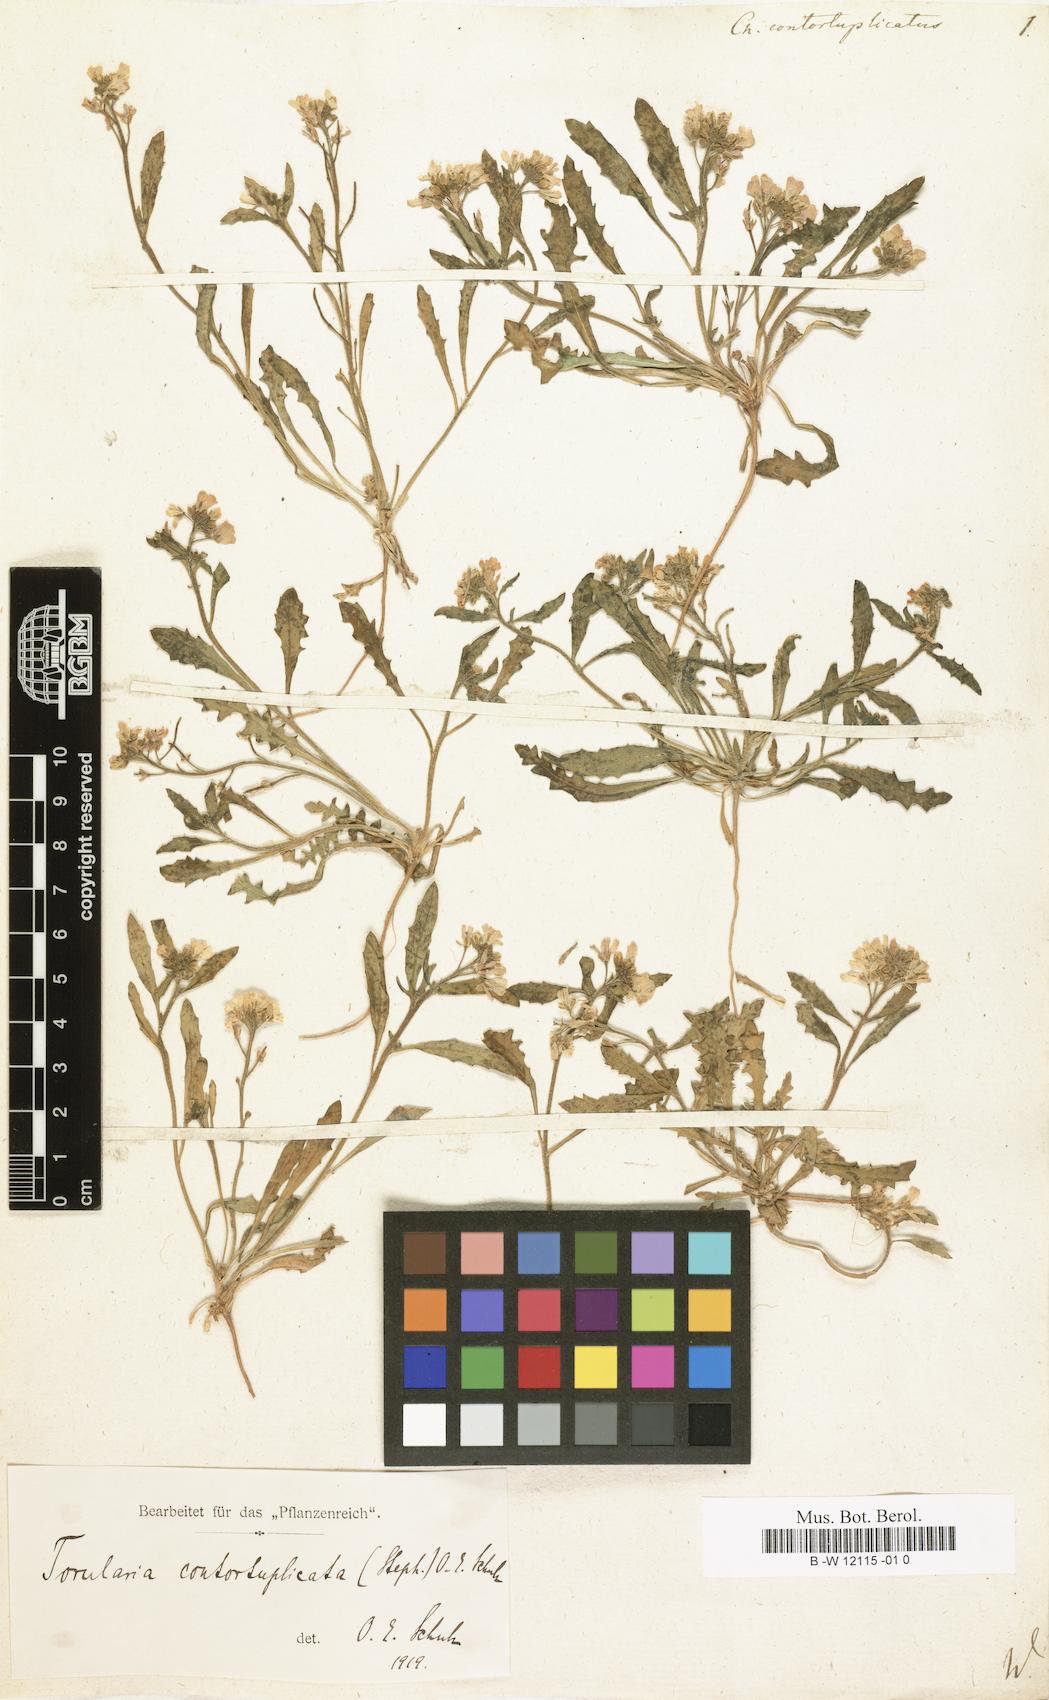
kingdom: Plantae
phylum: Tracheophyta
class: Magnoliopsida
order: Brassicales
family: Brassicaceae
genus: Neotorularia
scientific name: Neotorularia contortuplicata
